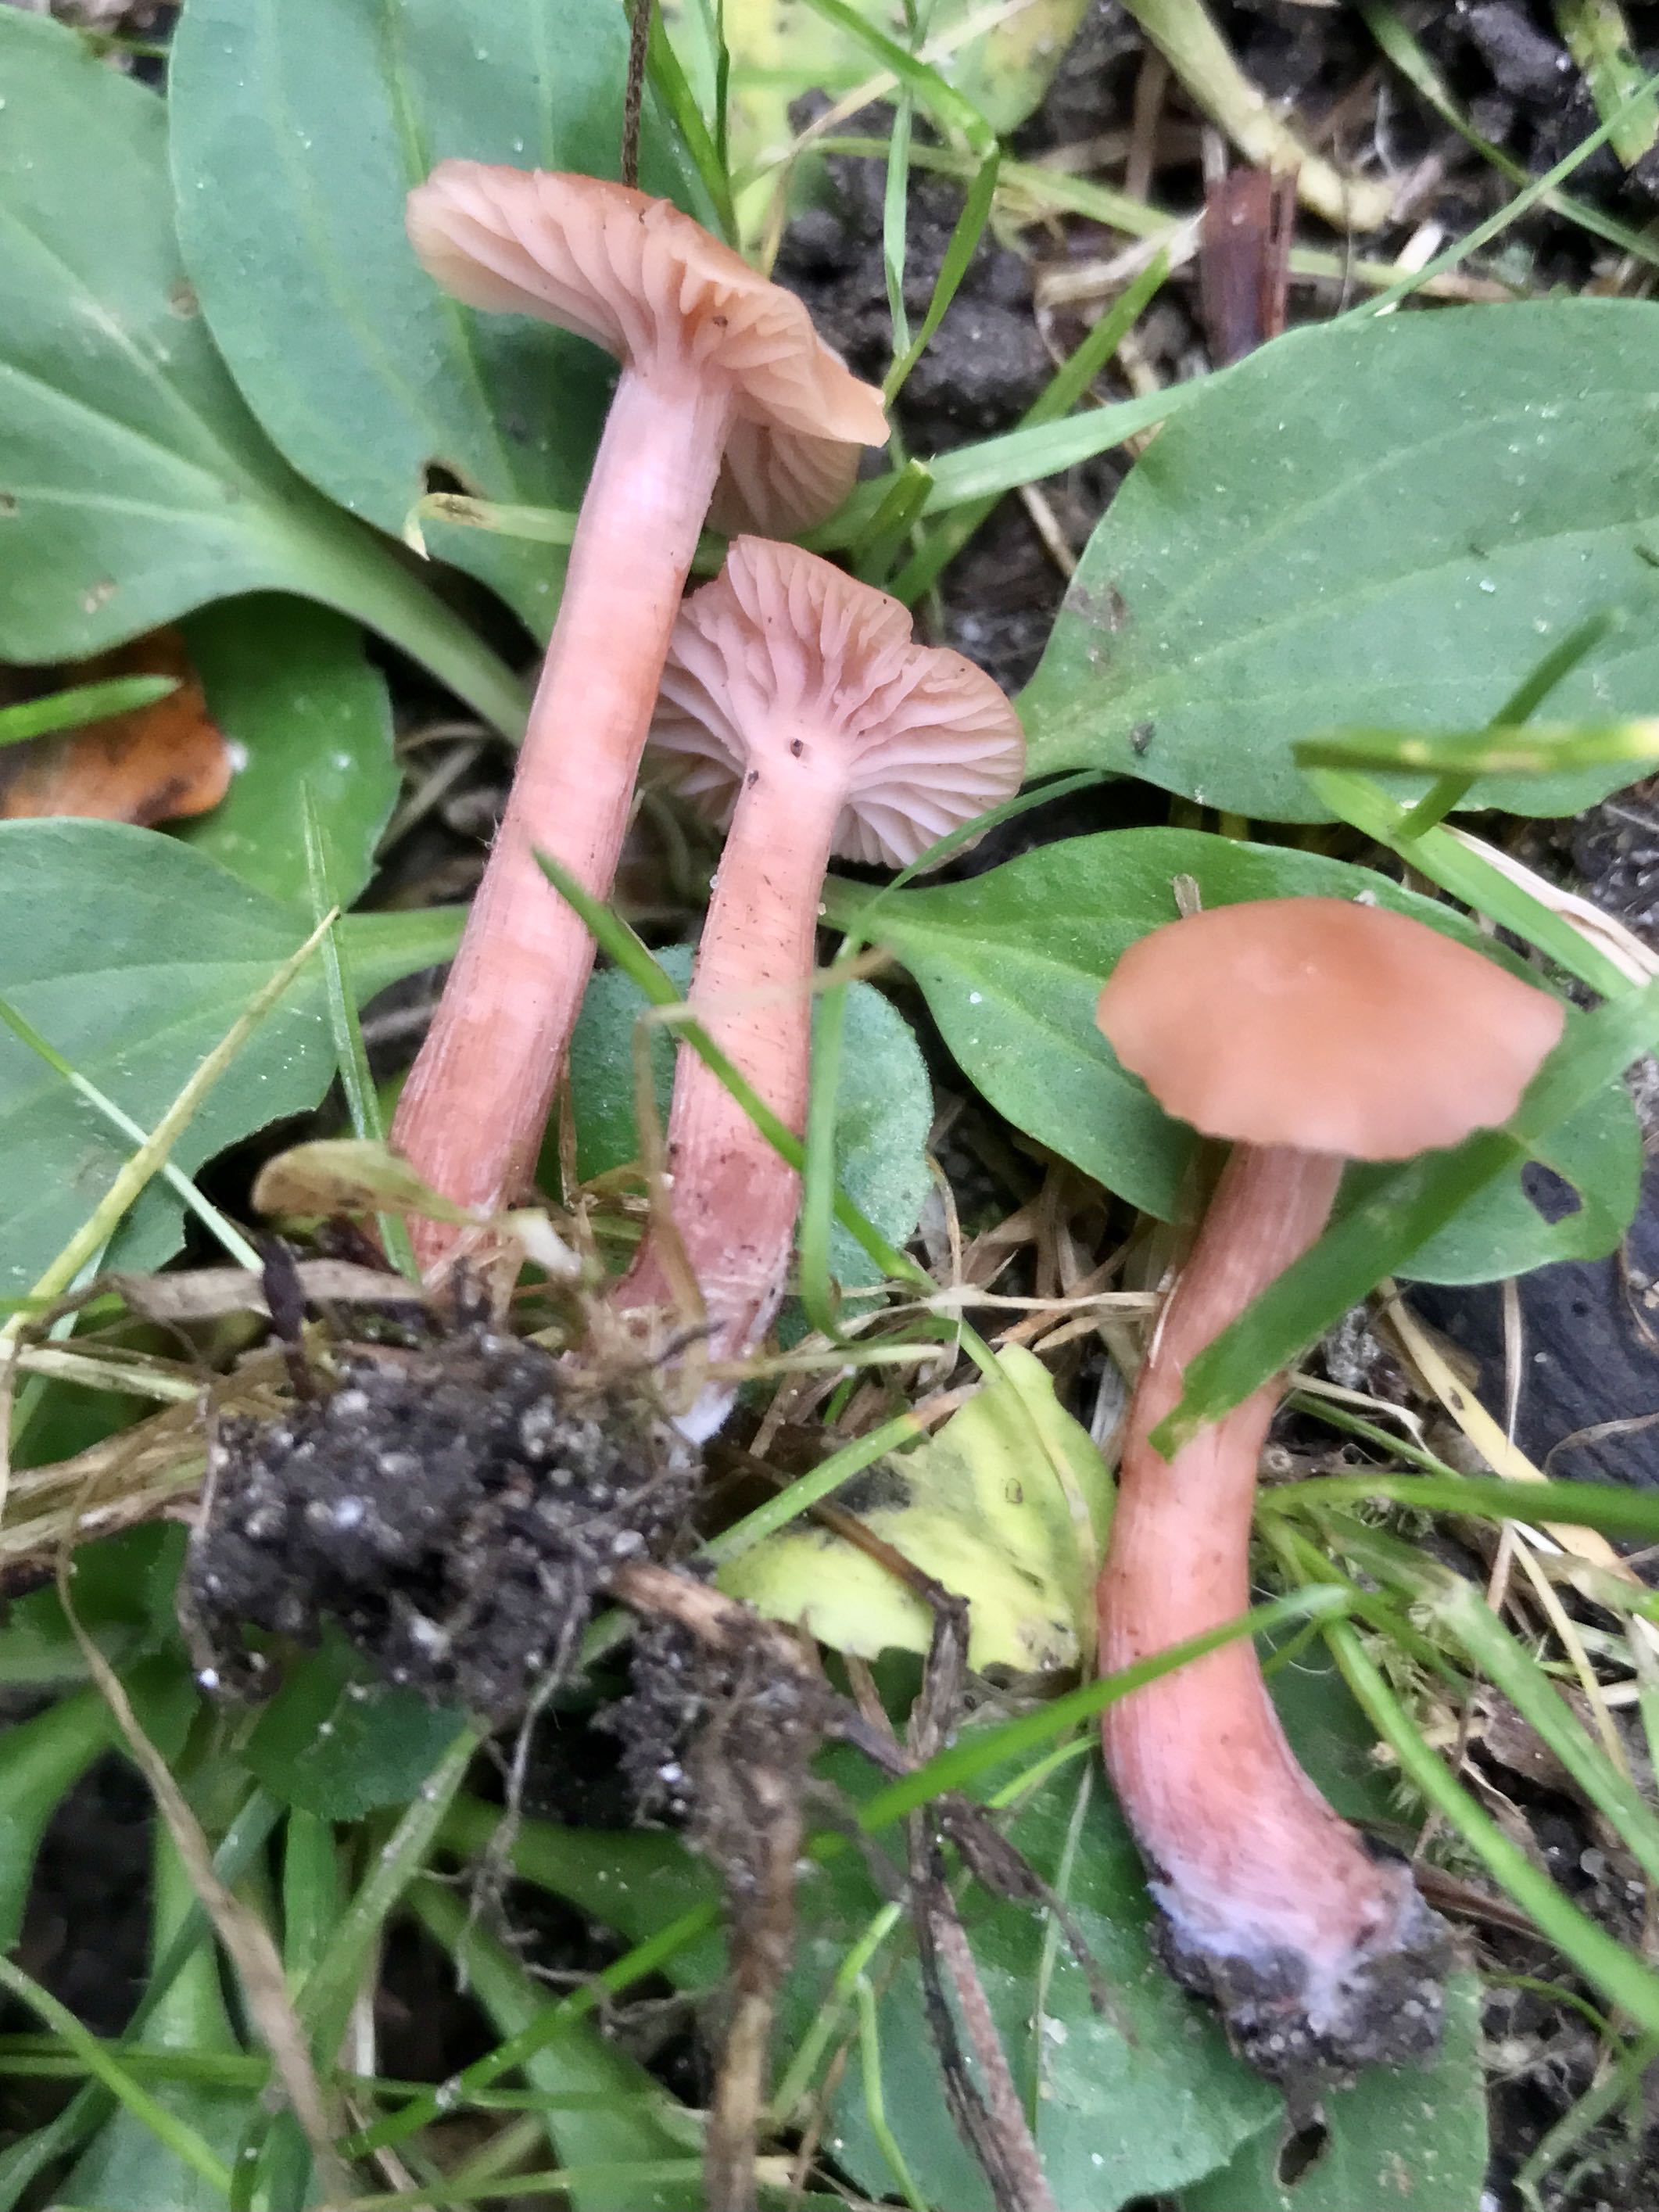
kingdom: Fungi
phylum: Basidiomycota
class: Agaricomycetes
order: Agaricales
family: Hydnangiaceae
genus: Laccaria
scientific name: Laccaria laccata
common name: rød ametysthat
